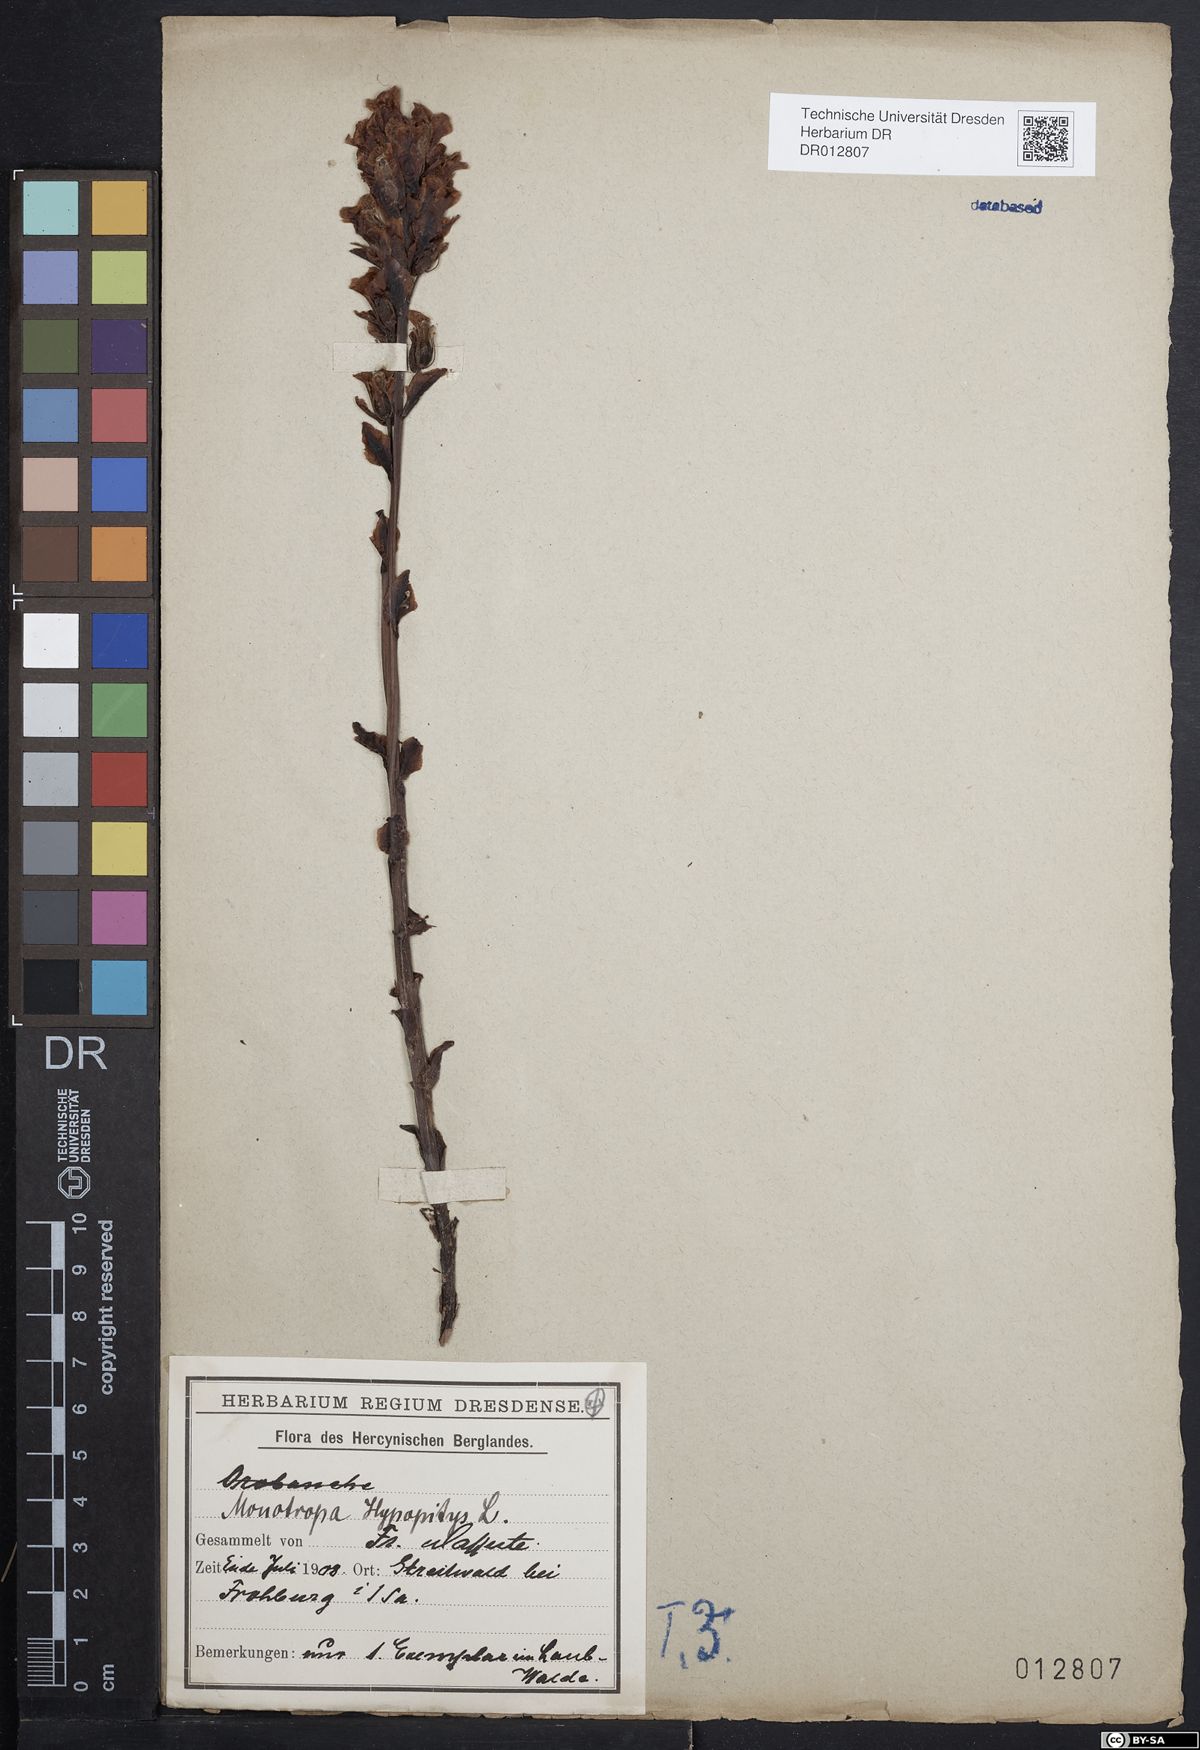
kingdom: Plantae
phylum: Tracheophyta
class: Magnoliopsida
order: Ericales
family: Ericaceae
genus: Hypopitys
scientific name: Hypopitys monotropa
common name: Yellow bird's-nest
